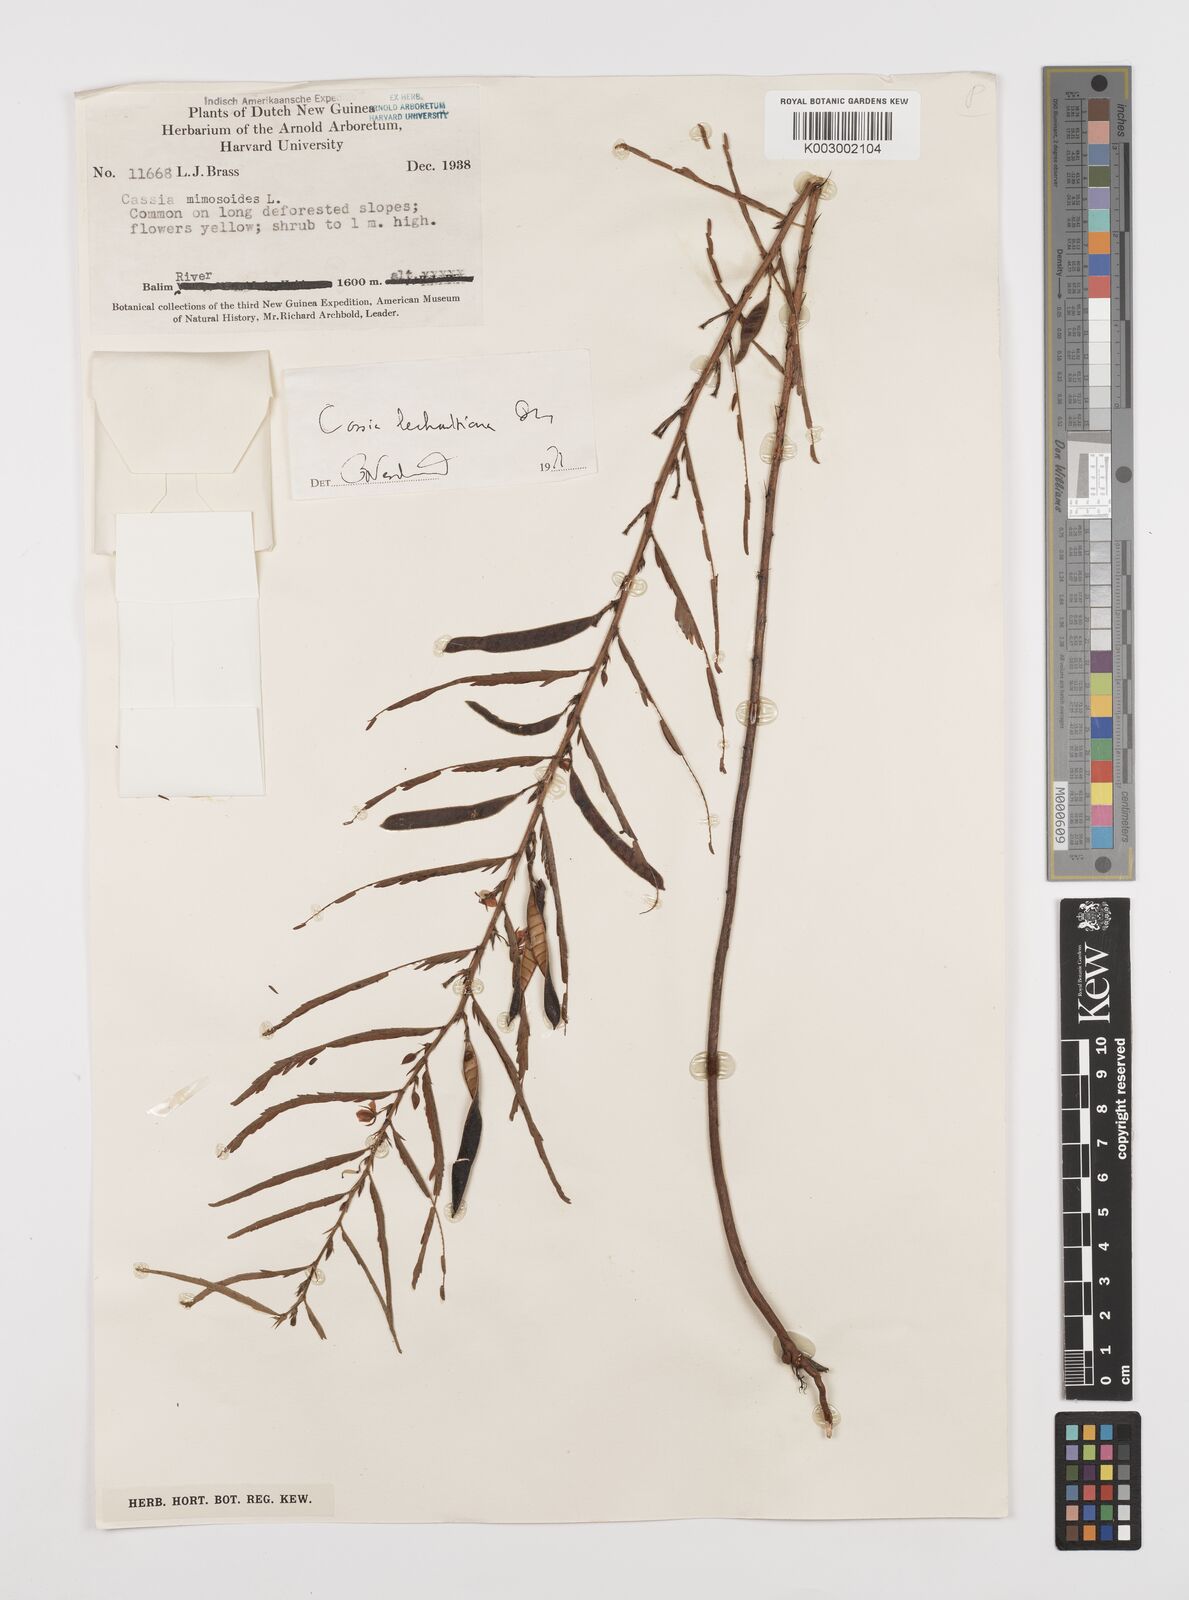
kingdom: Plantae
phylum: Tracheophyta
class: Magnoliopsida
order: Fabales
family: Fabaceae
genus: Chamaecrista
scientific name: Chamaecrista mimosoides
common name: Fish-bone cassia
